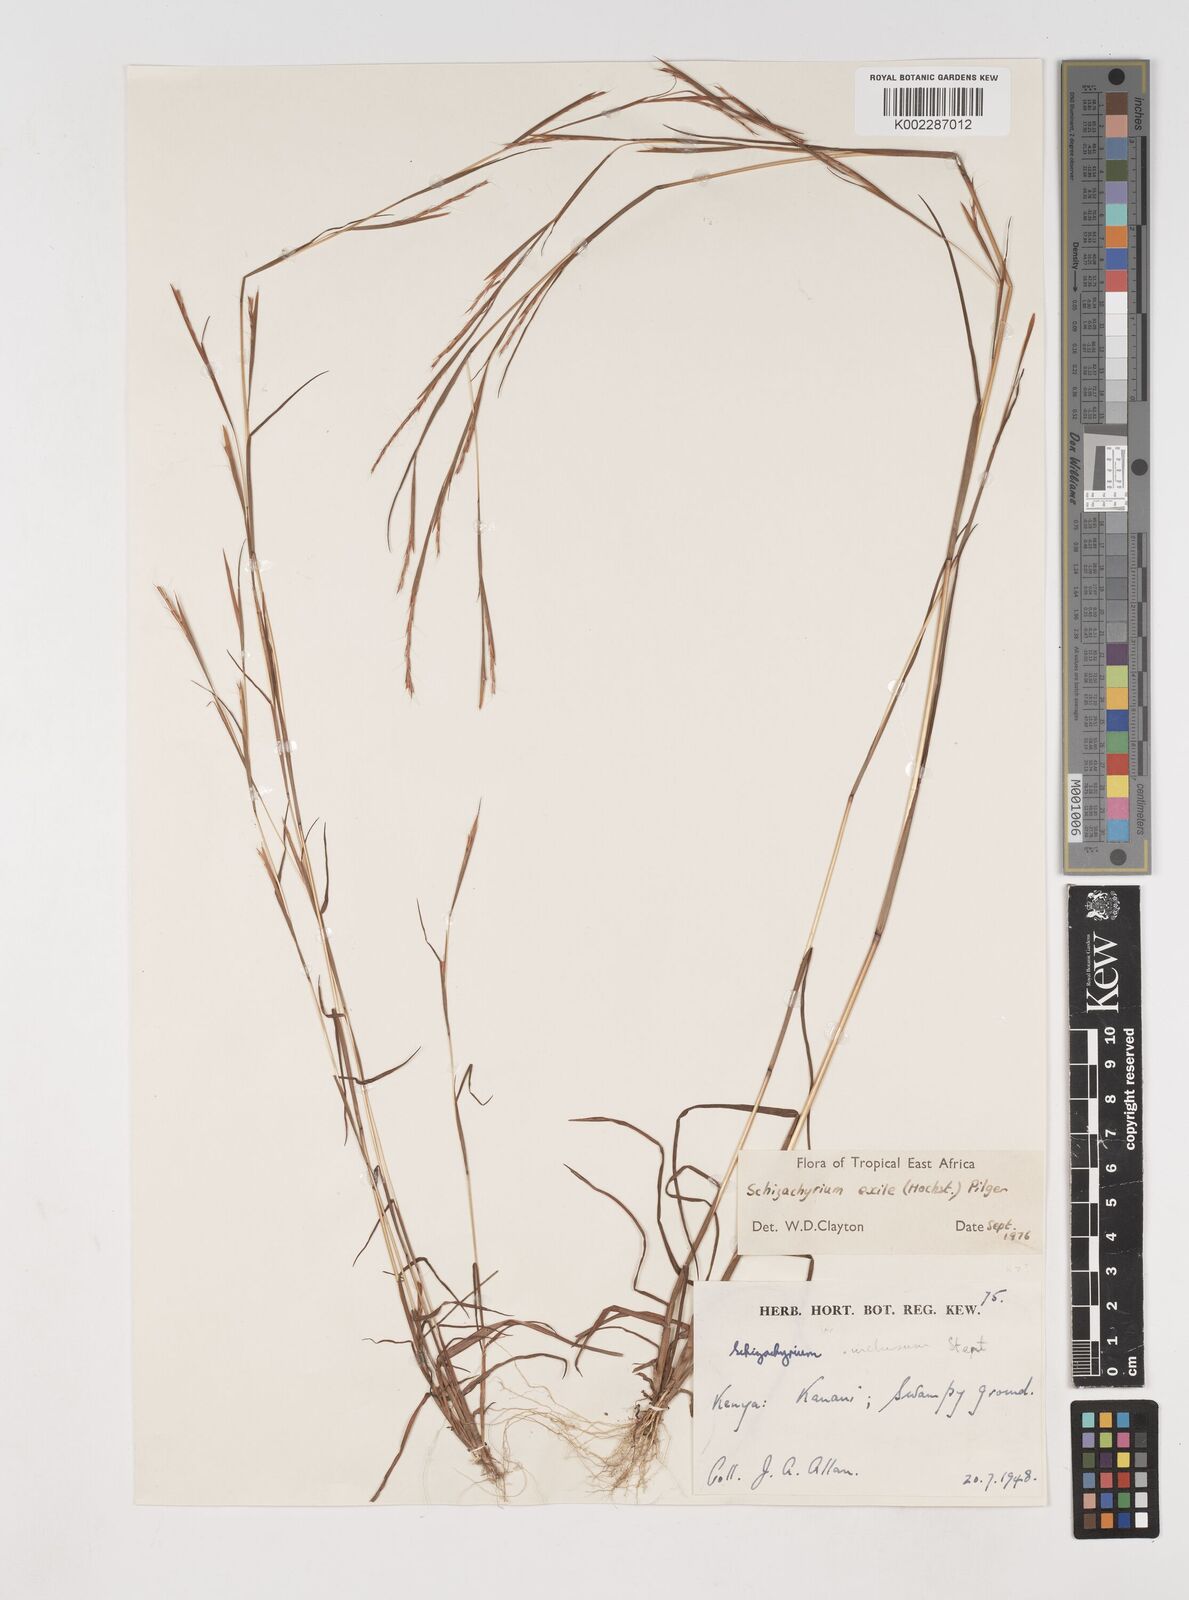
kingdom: Plantae
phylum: Tracheophyta
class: Liliopsida
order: Poales
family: Poaceae
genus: Schizachyrium
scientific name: Schizachyrium exile
